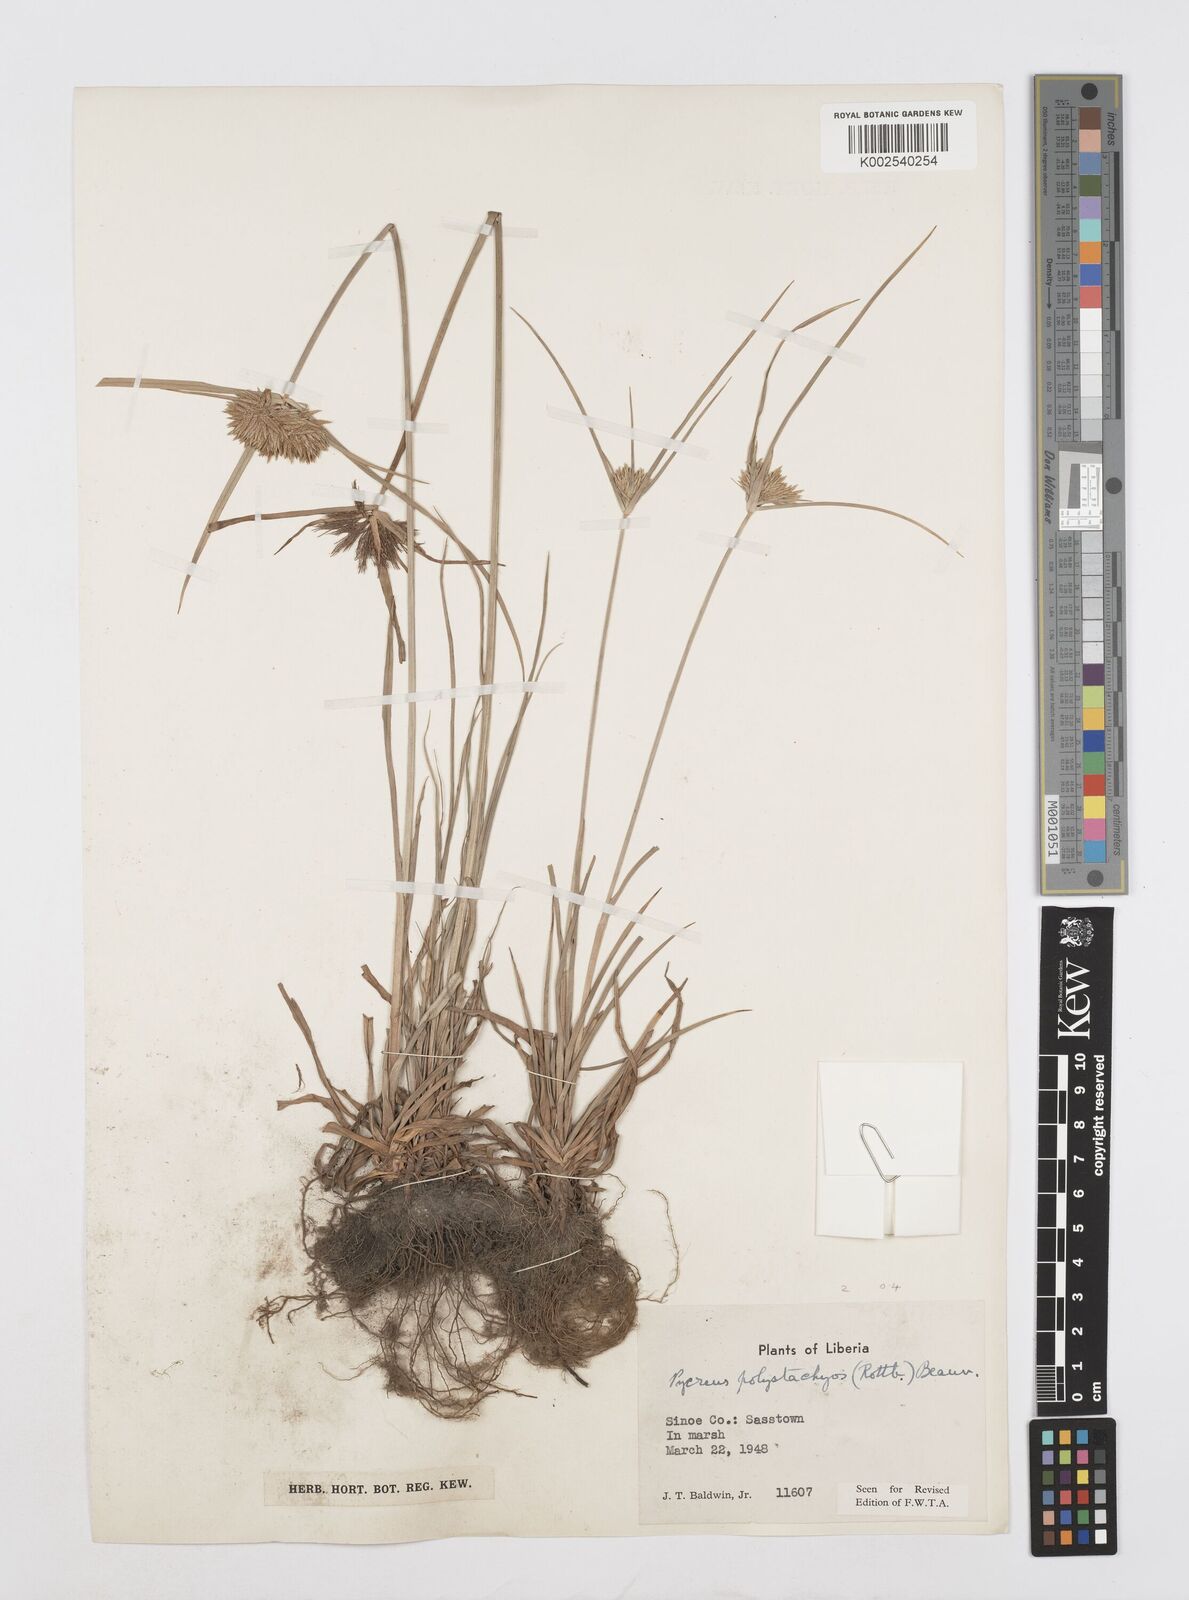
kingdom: Plantae
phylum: Tracheophyta
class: Liliopsida
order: Poales
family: Cyperaceae
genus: Cyperus
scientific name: Cyperus polystachyos
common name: Bunchy flat sedge
